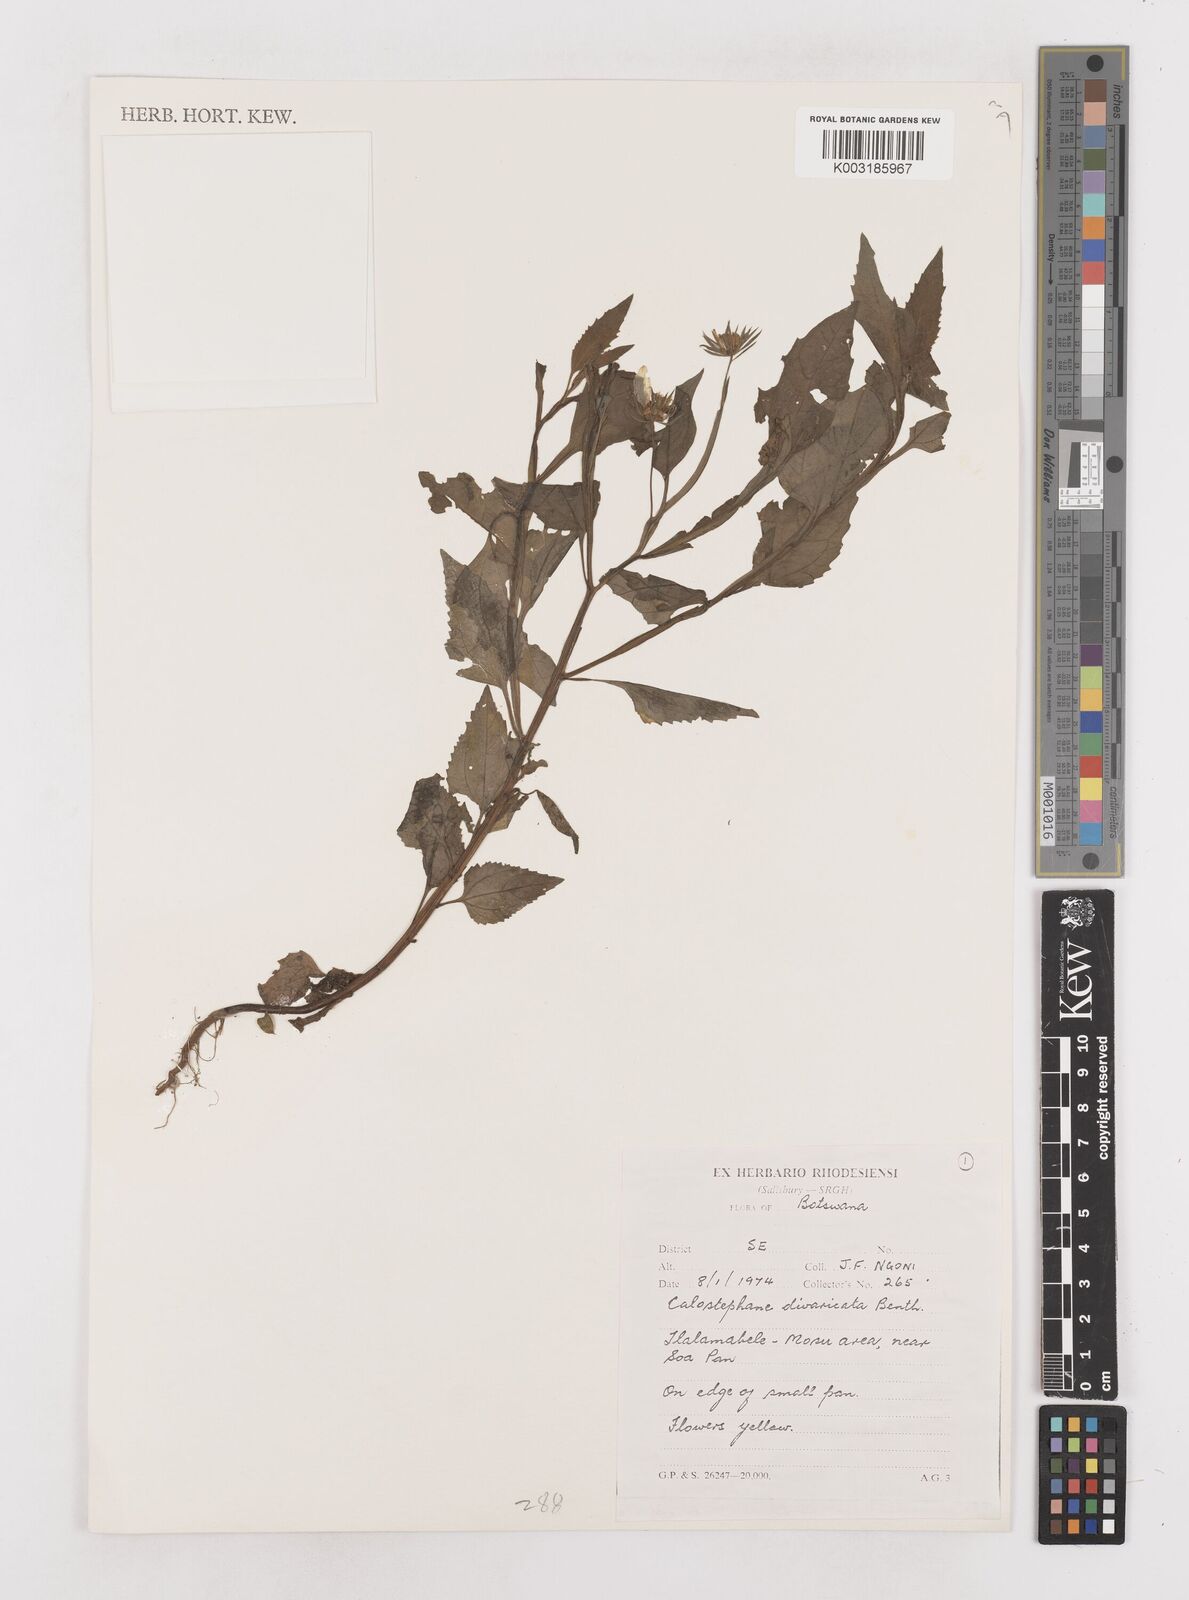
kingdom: Plantae
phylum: Tracheophyta
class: Magnoliopsida
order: Asterales
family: Asteraceae
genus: Calostephane
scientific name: Calostephane divaricata
